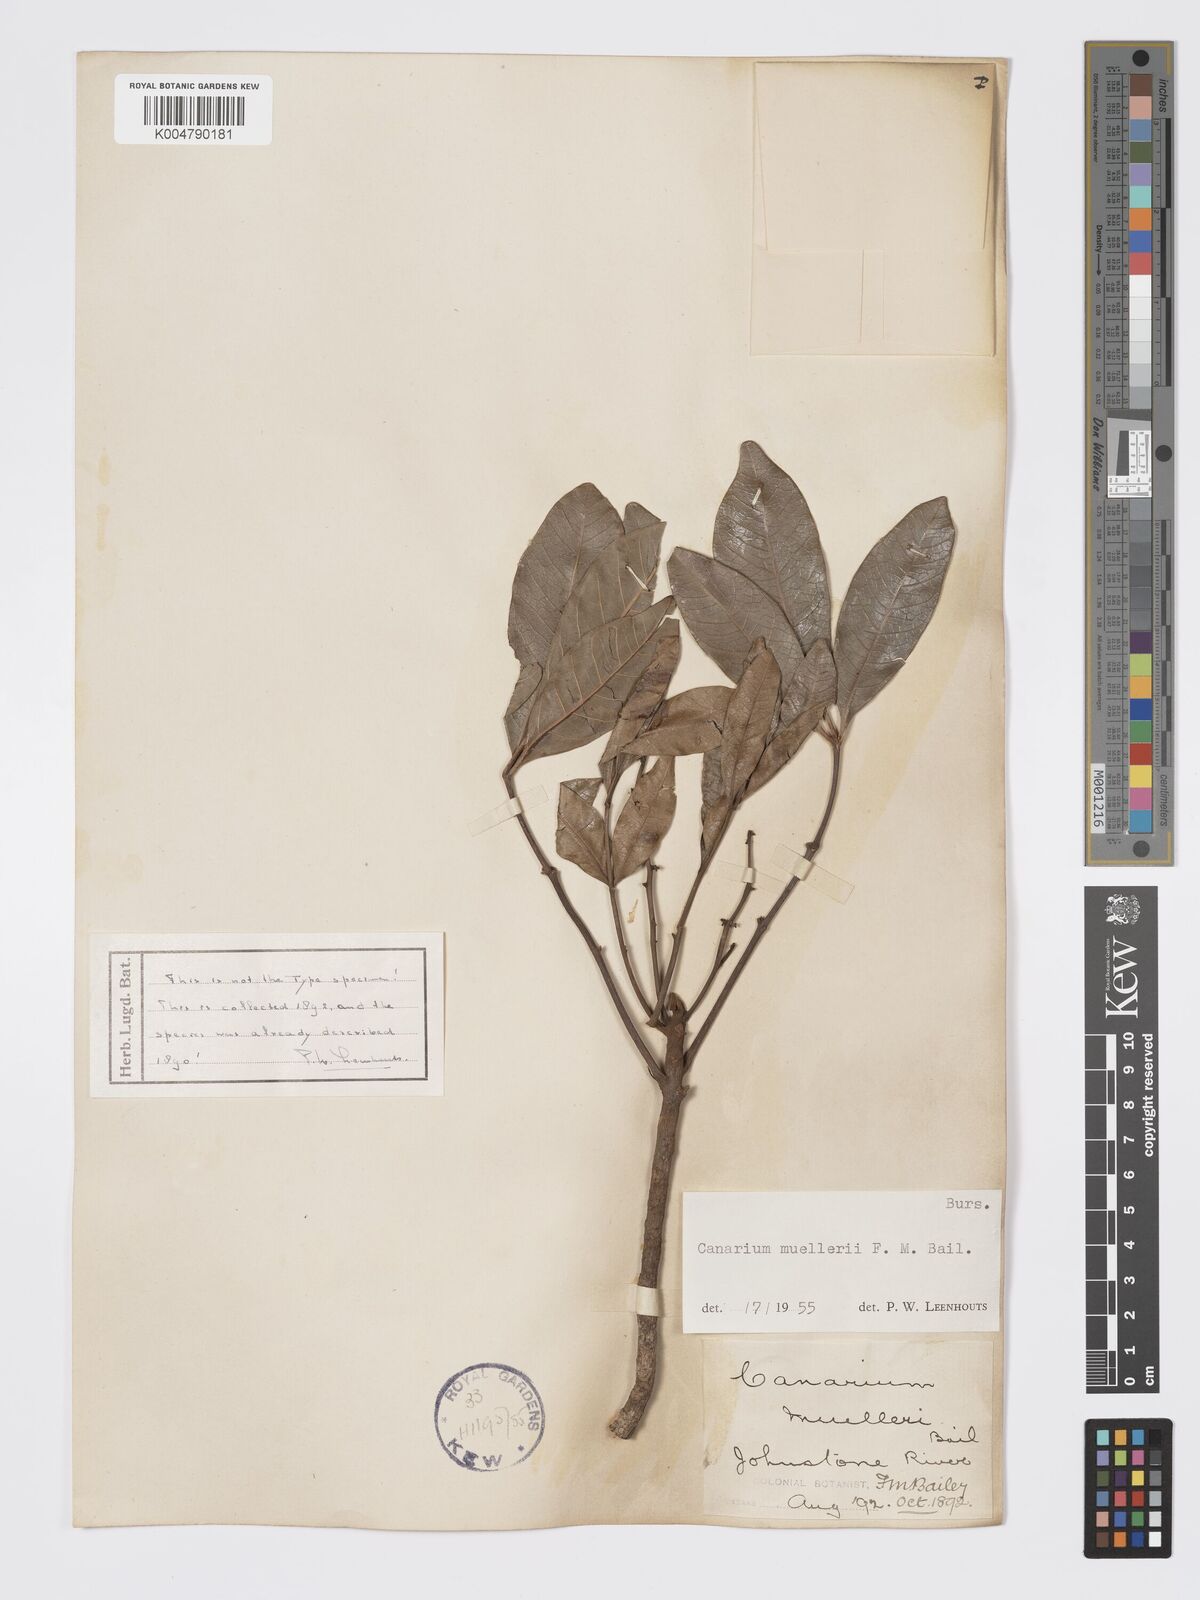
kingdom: Plantae
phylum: Tracheophyta
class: Magnoliopsida
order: Sapindales
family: Burseraceae
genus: Canarium
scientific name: Canarium muelleri
